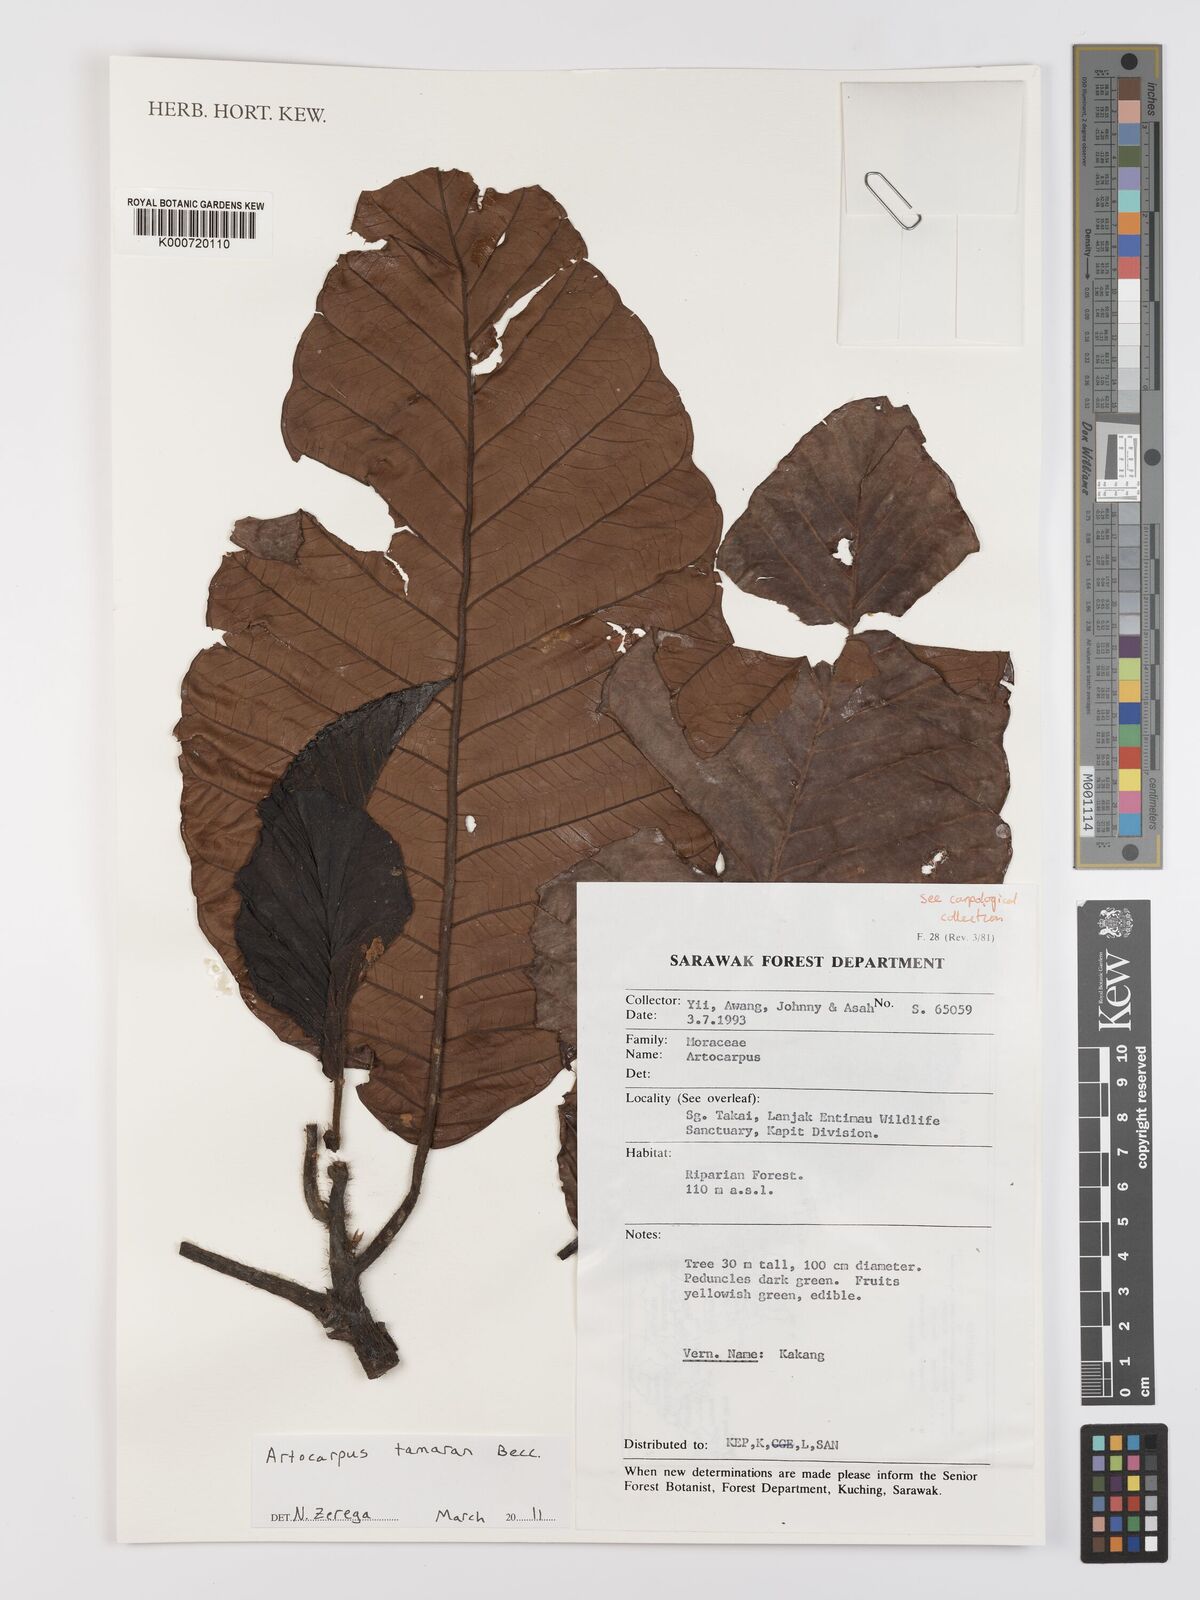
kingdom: Plantae
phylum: Tracheophyta
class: Magnoliopsida
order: Rosales
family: Moraceae
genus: Artocarpus
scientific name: Artocarpus tamaran
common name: Elephant jack
